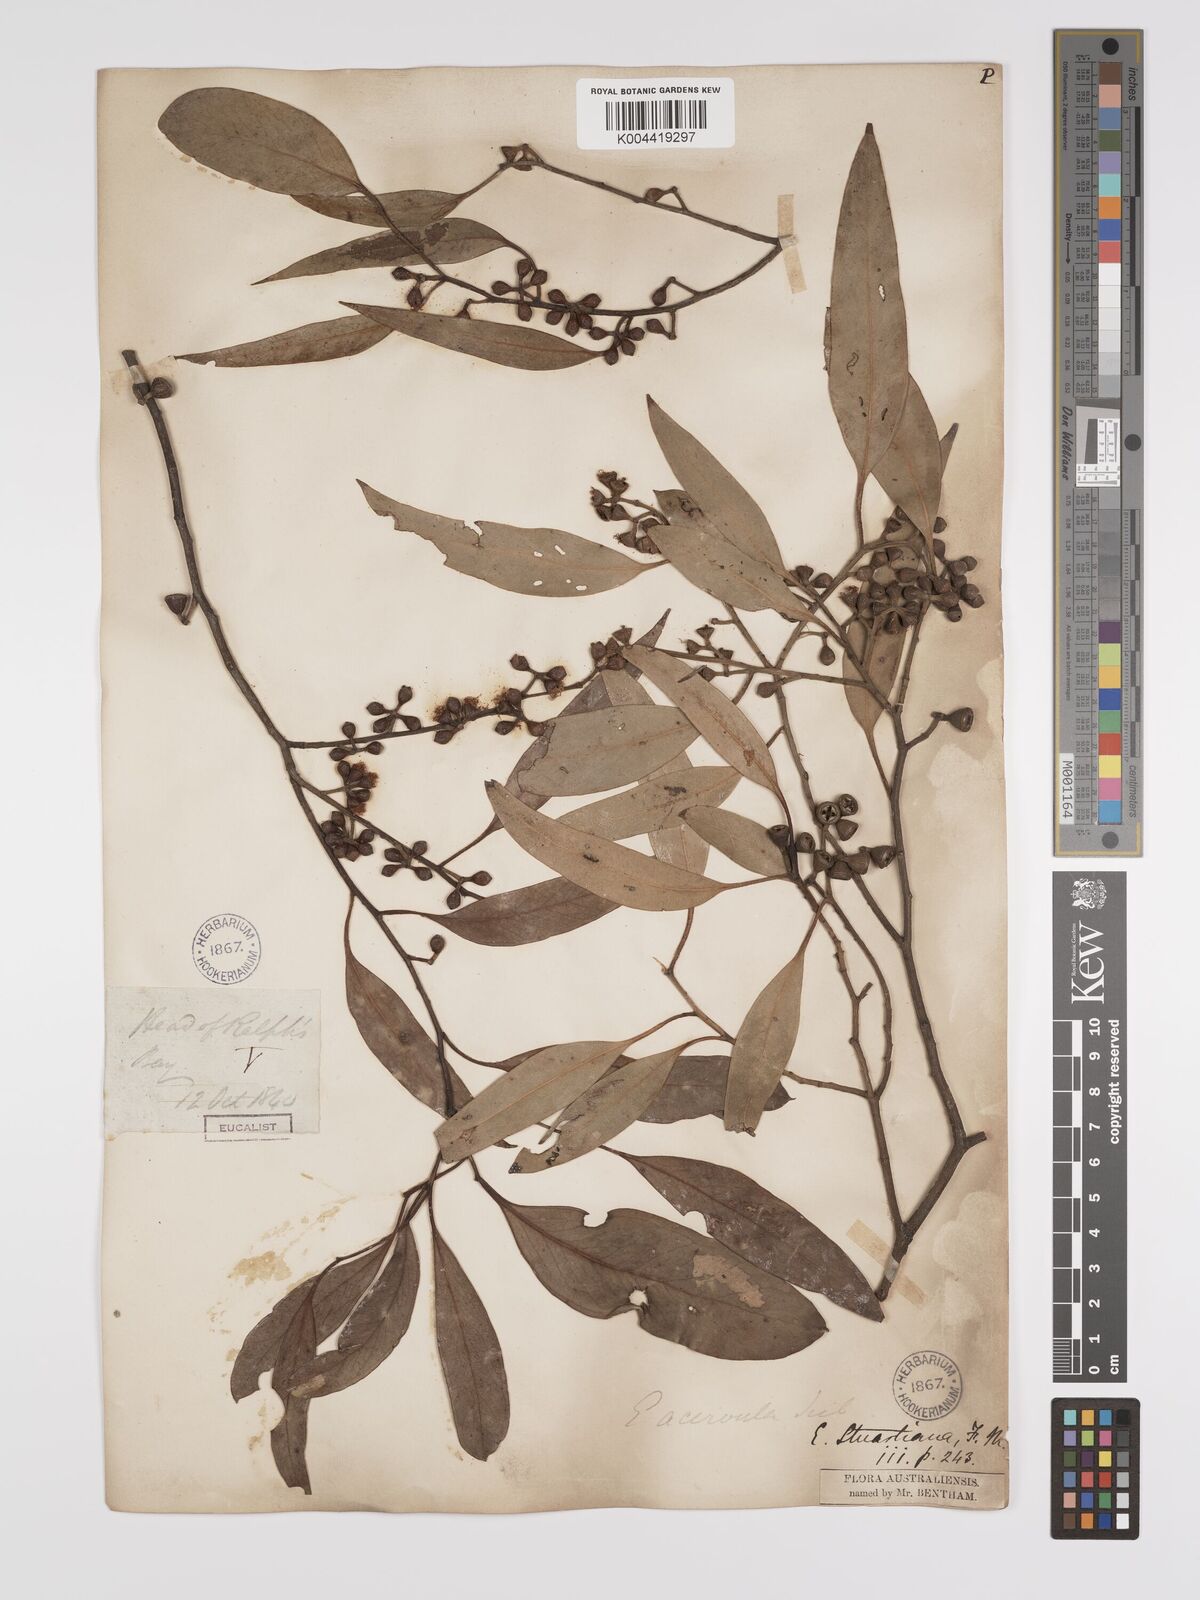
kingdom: Plantae
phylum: Tracheophyta
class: Magnoliopsida
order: Myrtales
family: Myrtaceae
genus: Eucalyptus
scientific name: Eucalyptus ovata
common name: Black-gum
